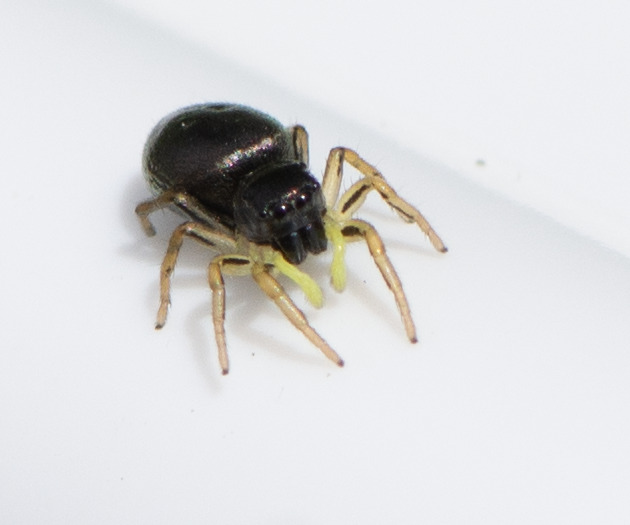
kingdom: Animalia
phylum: Arthropoda
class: Arachnida
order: Araneae
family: Salticidae
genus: Heliophanus
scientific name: Heliophanus
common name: Sortspringerslægten
